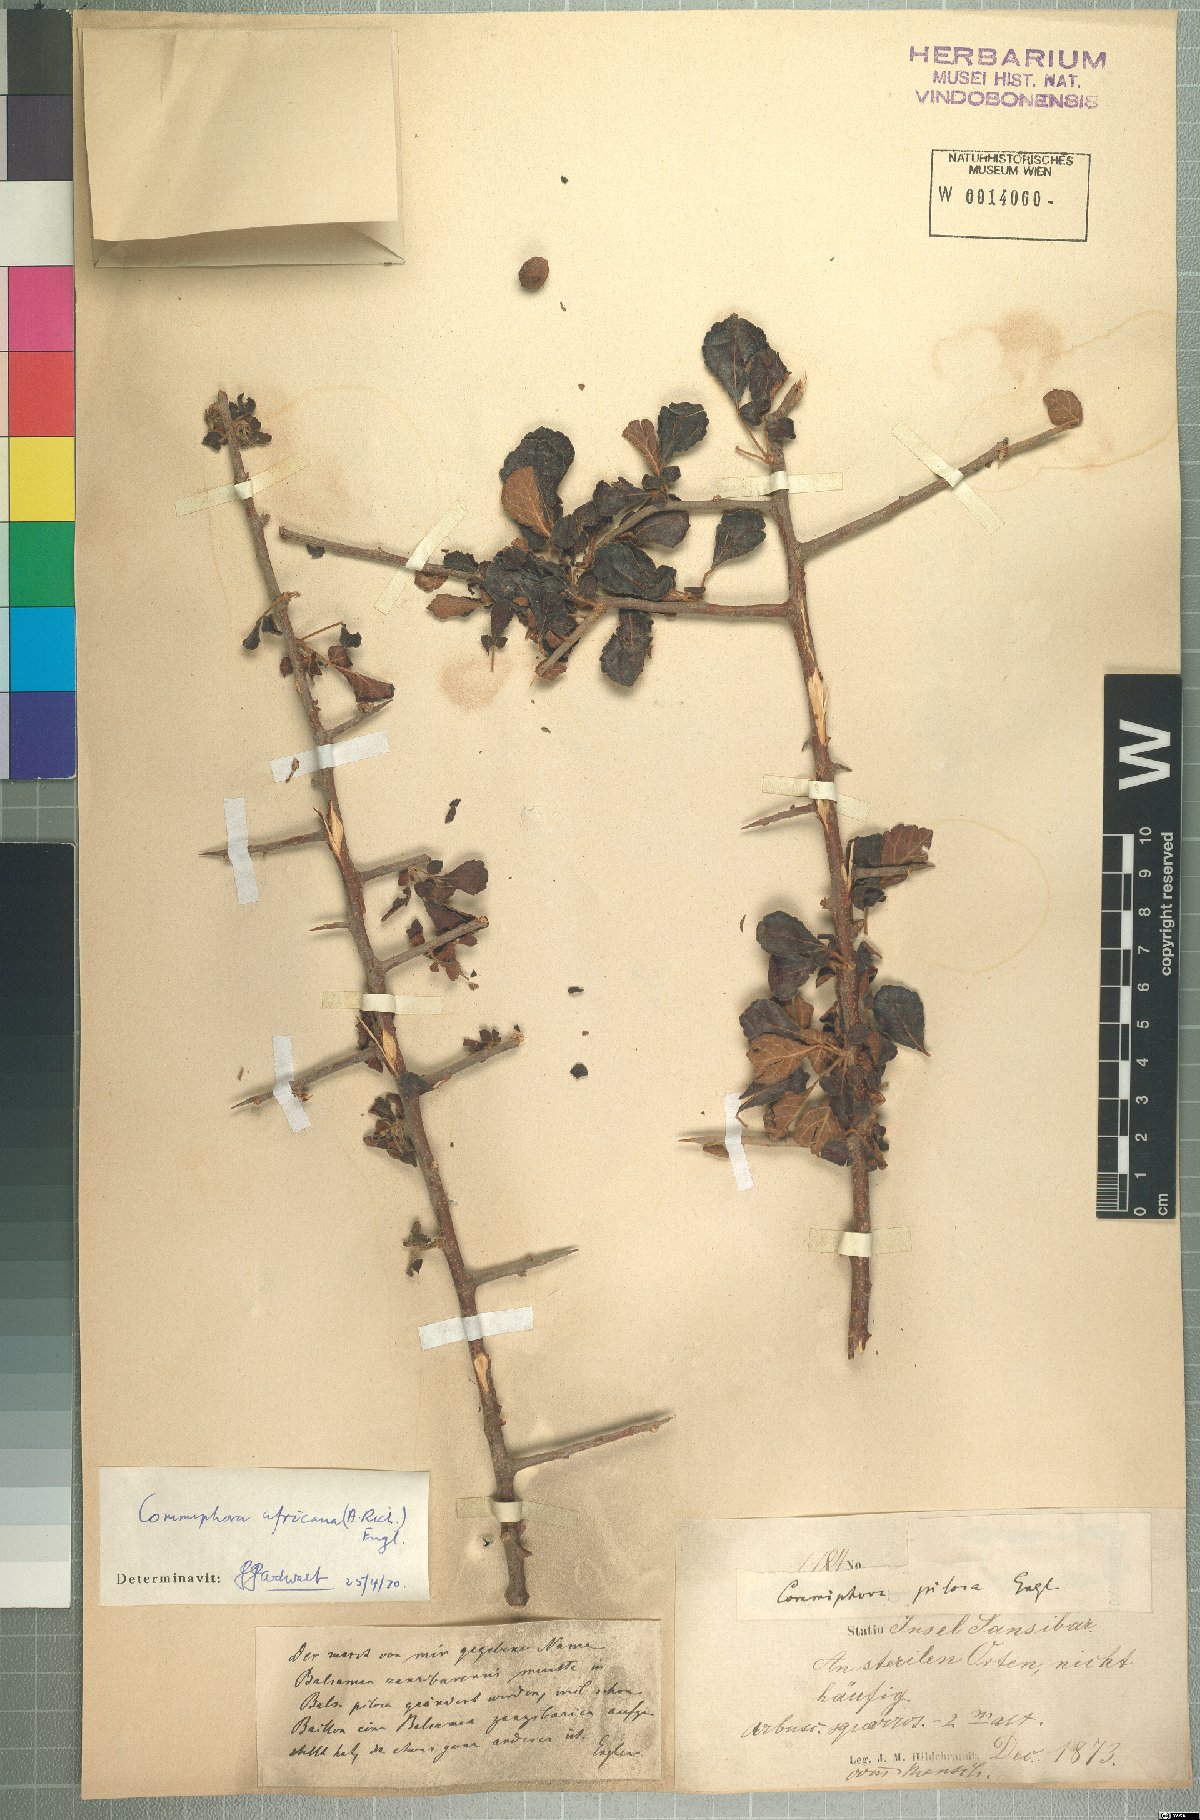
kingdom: Plantae
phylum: Tracheophyta
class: Magnoliopsida
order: Sapindales
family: Burseraceae
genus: Commiphora
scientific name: Commiphora africana
